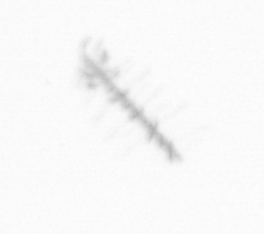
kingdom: Chromista
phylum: Ochrophyta
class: Bacillariophyceae
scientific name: Bacillariophyceae
